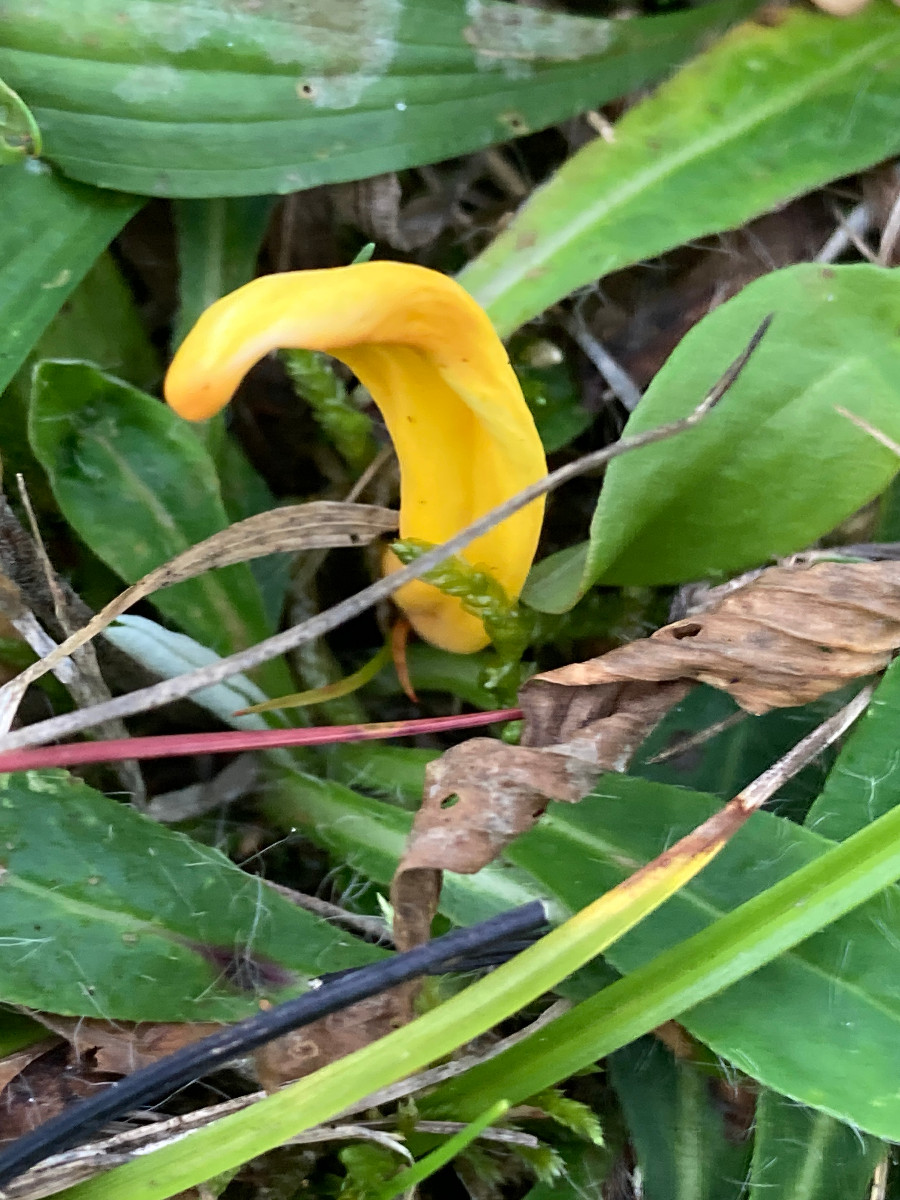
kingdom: Fungi
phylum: Basidiomycota
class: Agaricomycetes
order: Agaricales
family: Clavariaceae
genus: Clavulinopsis
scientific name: Clavulinopsis
